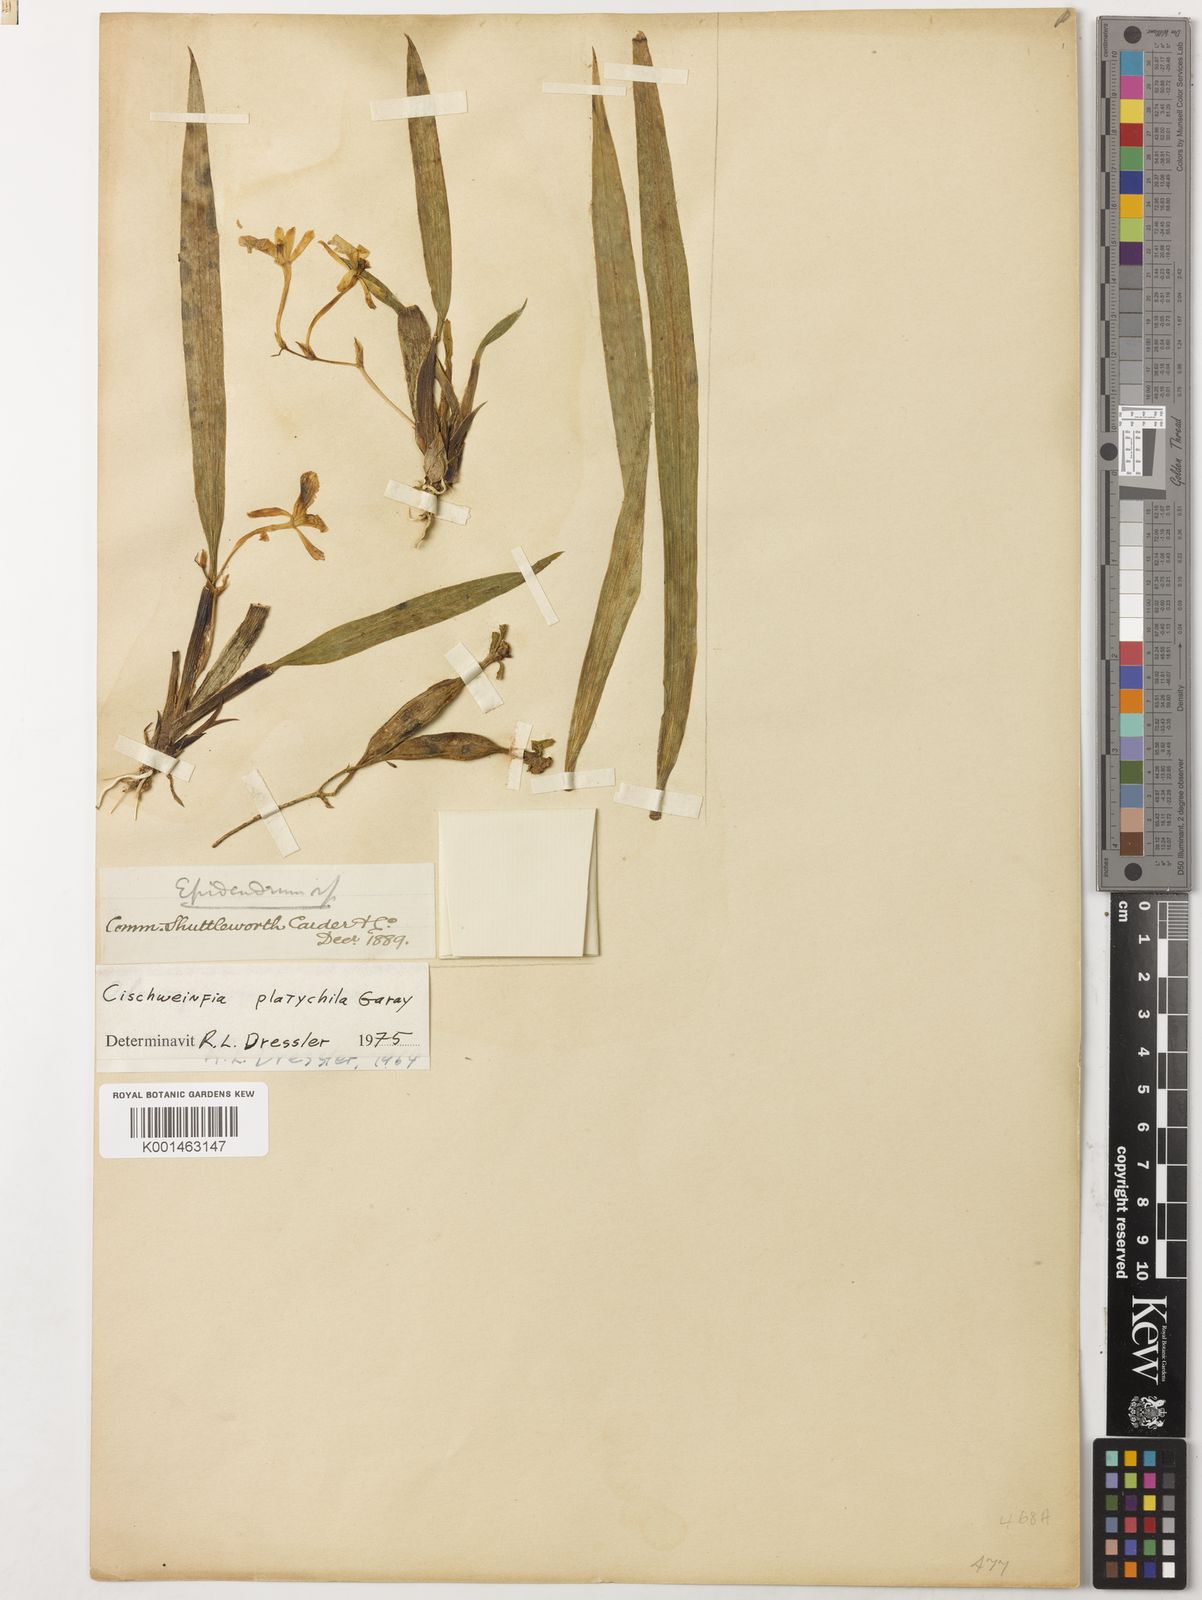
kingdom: Plantae
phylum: Tracheophyta
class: Liliopsida
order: Asparagales
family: Orchidaceae
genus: Cischweinfia
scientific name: Cischweinfia platychila
